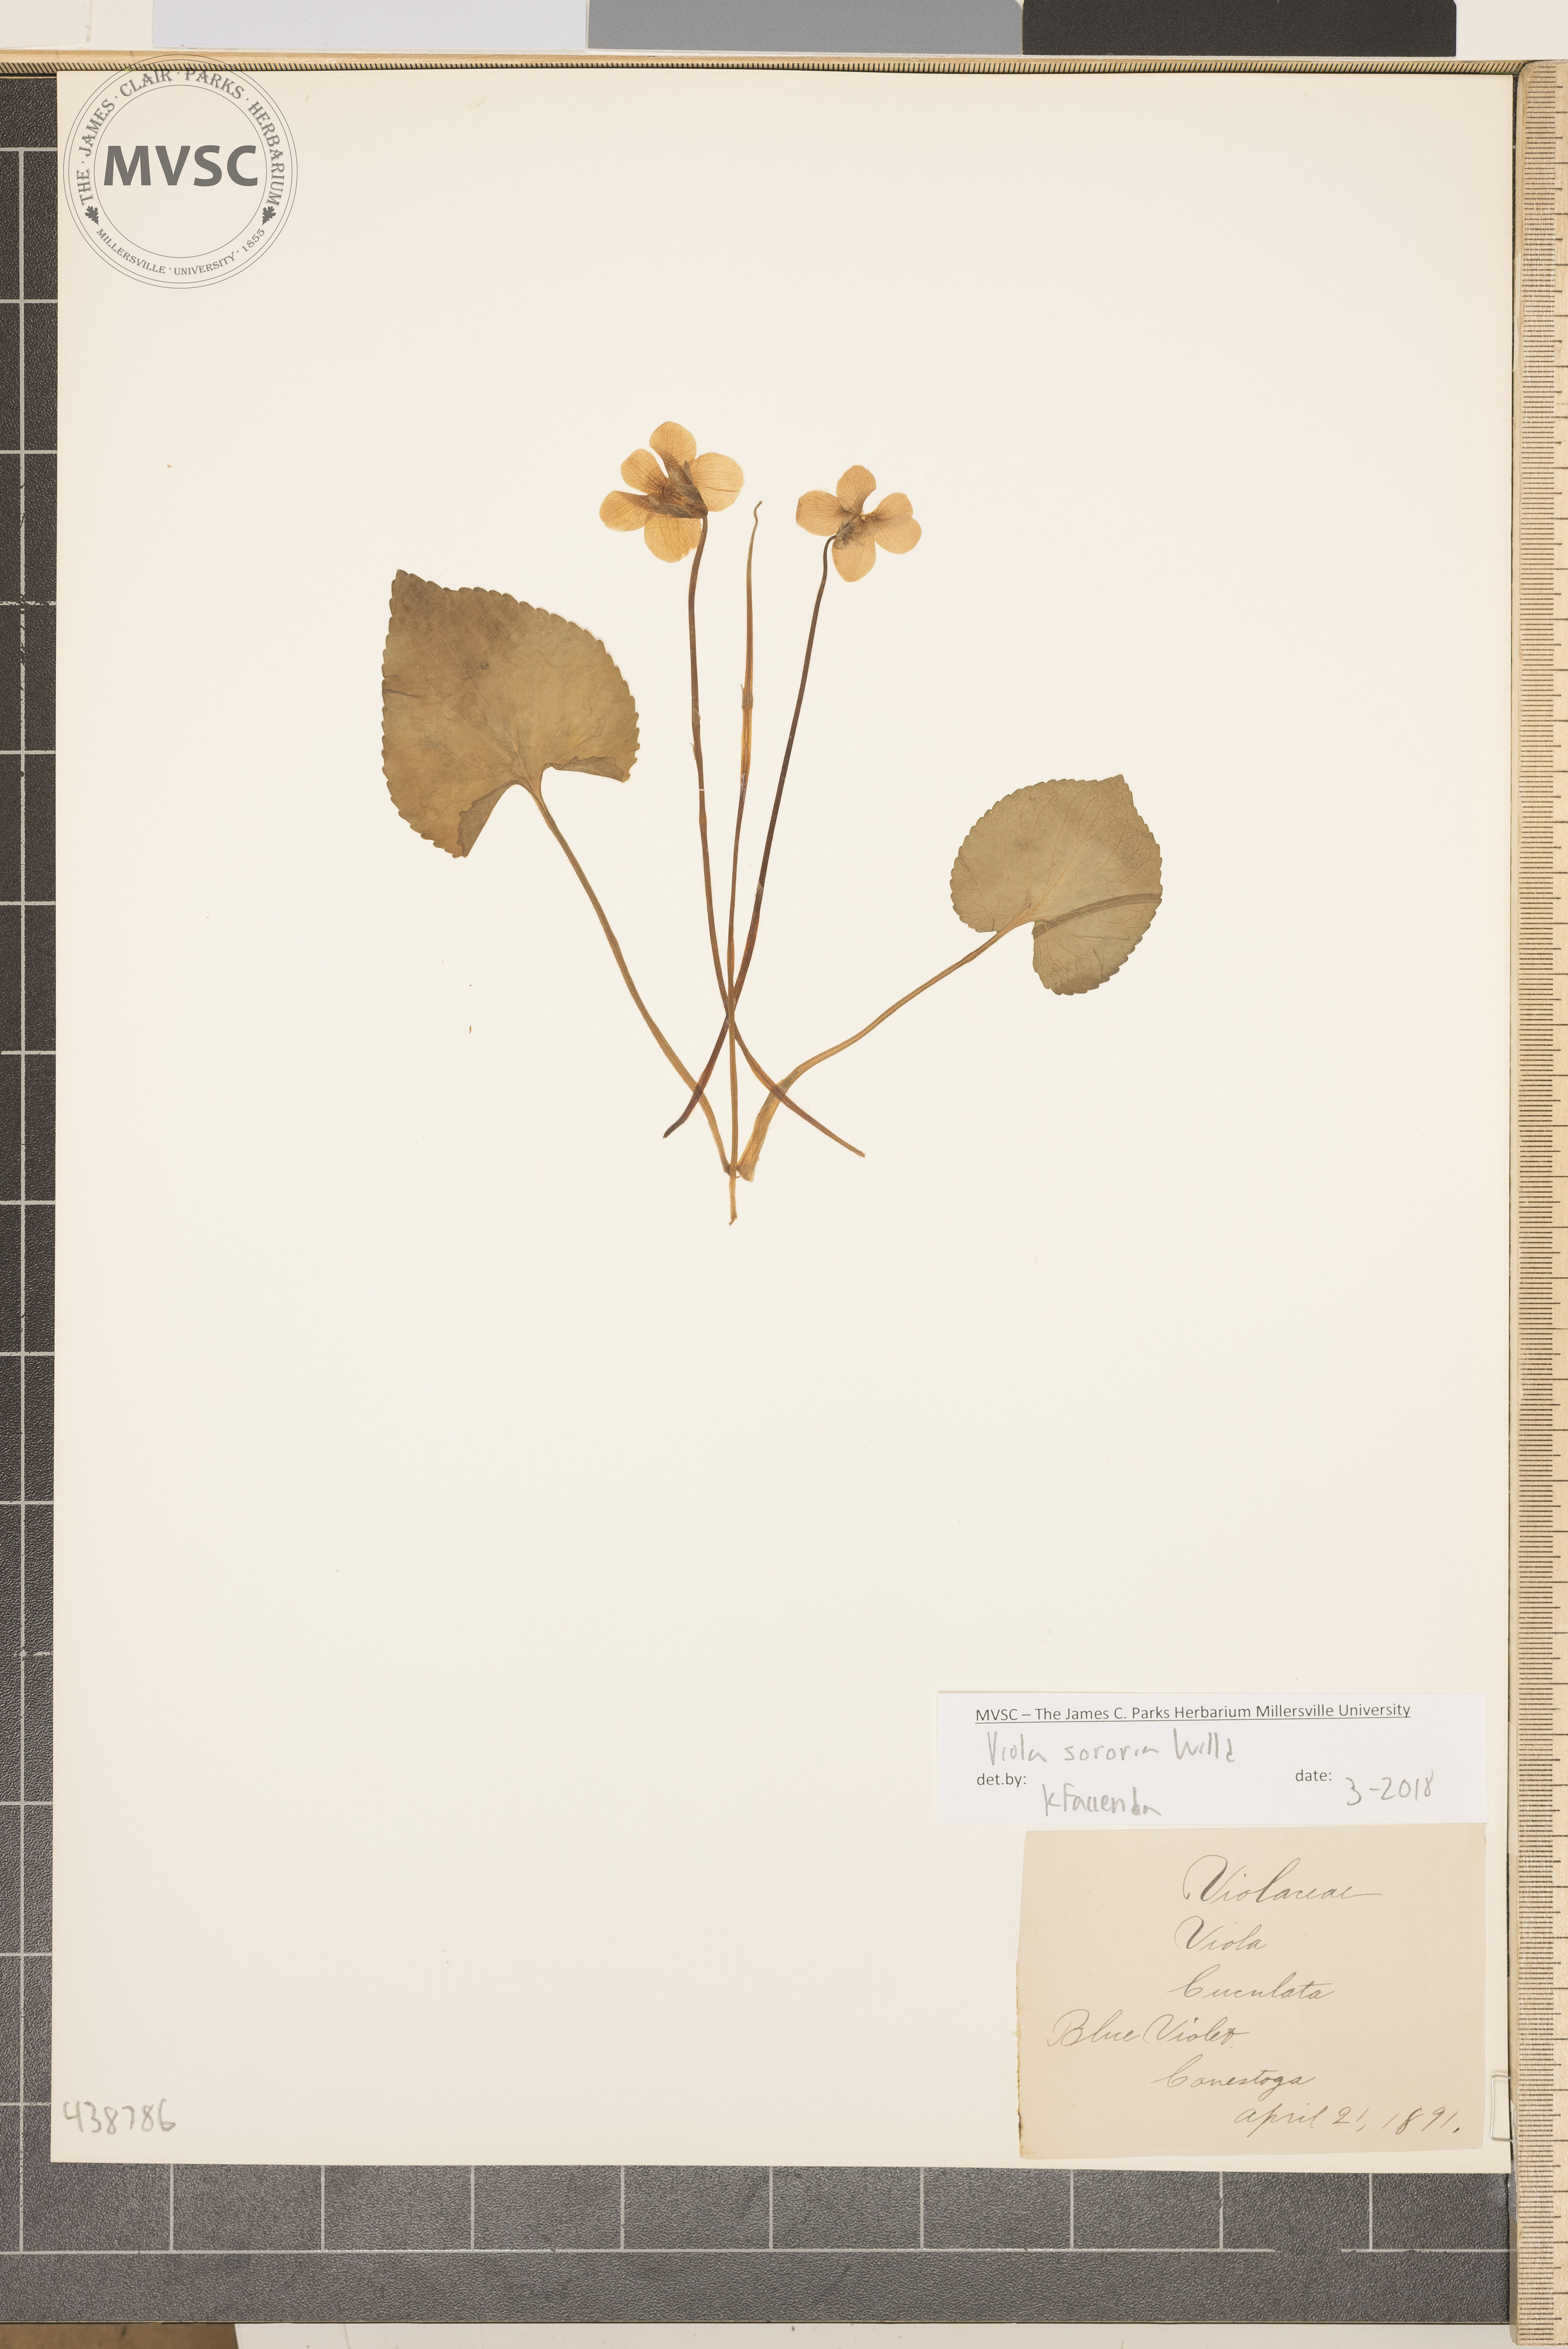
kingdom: Plantae
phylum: Tracheophyta
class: Magnoliopsida
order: Malpighiales
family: Violaceae
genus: Viola
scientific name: Viola sororia
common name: Blue violet
